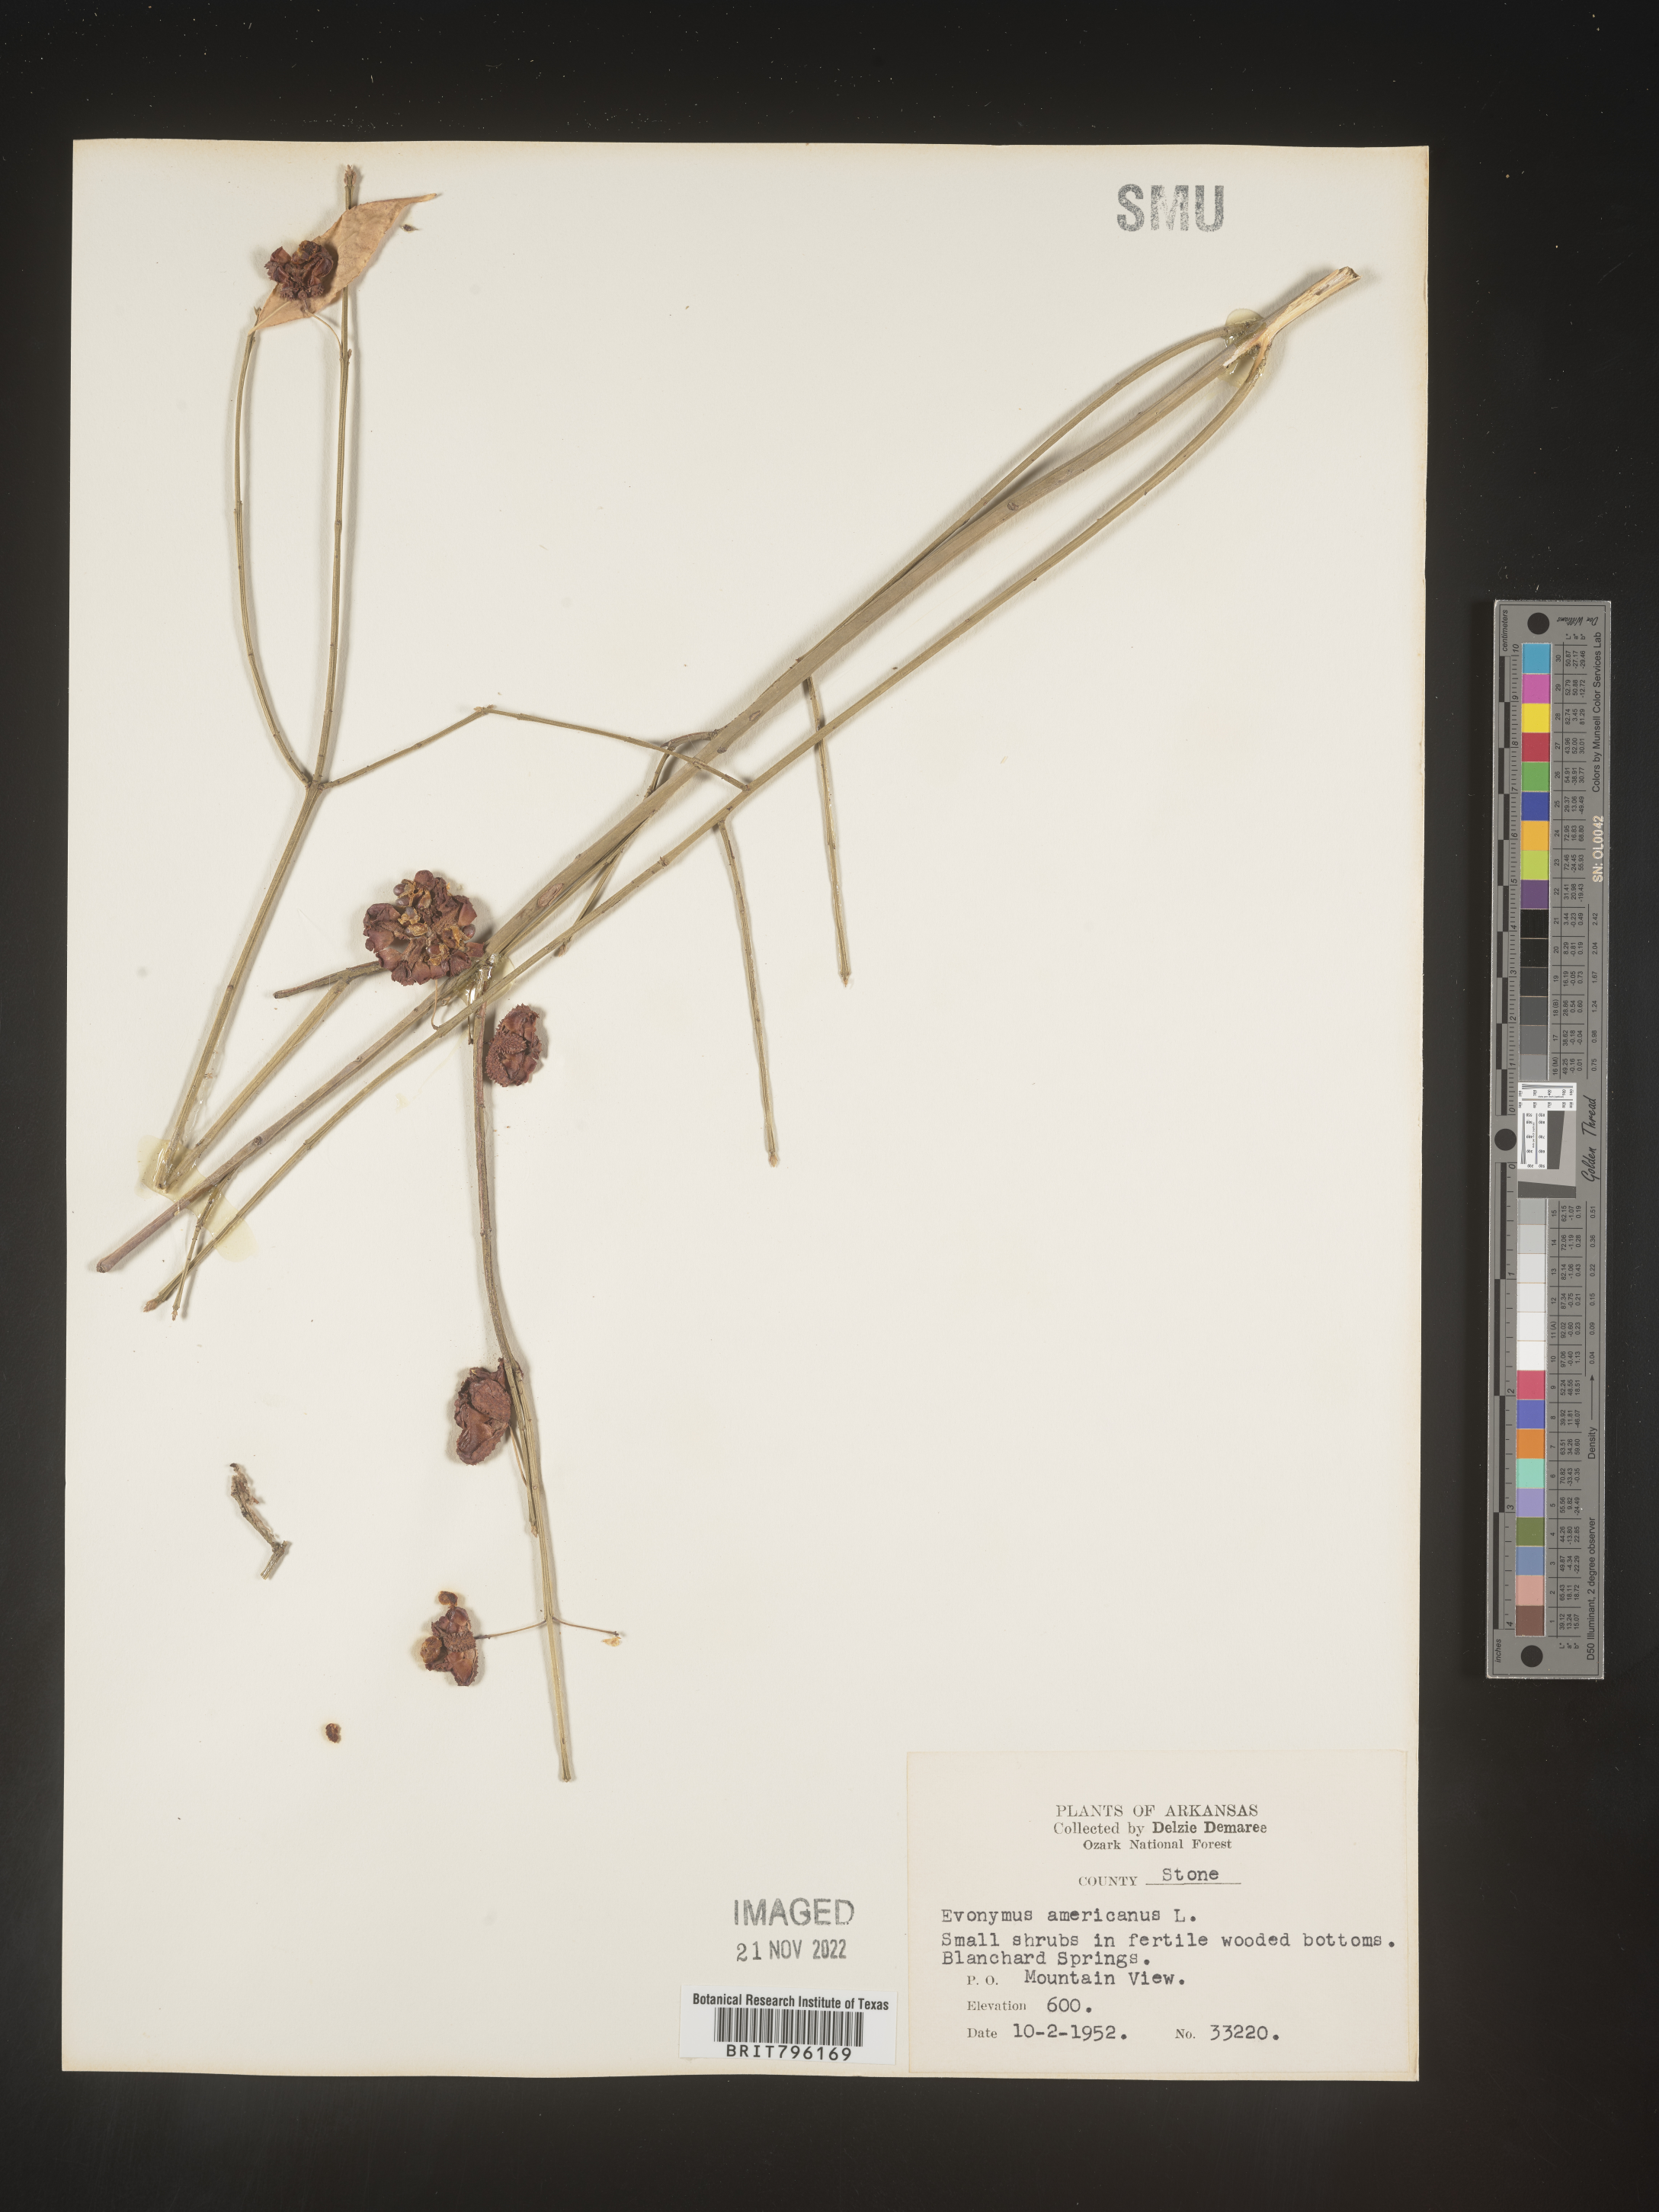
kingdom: Plantae
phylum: Tracheophyta
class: Magnoliopsida
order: Celastrales
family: Celastraceae
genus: Euonymus
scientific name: Euonymus americanus
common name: Bursting-heart
